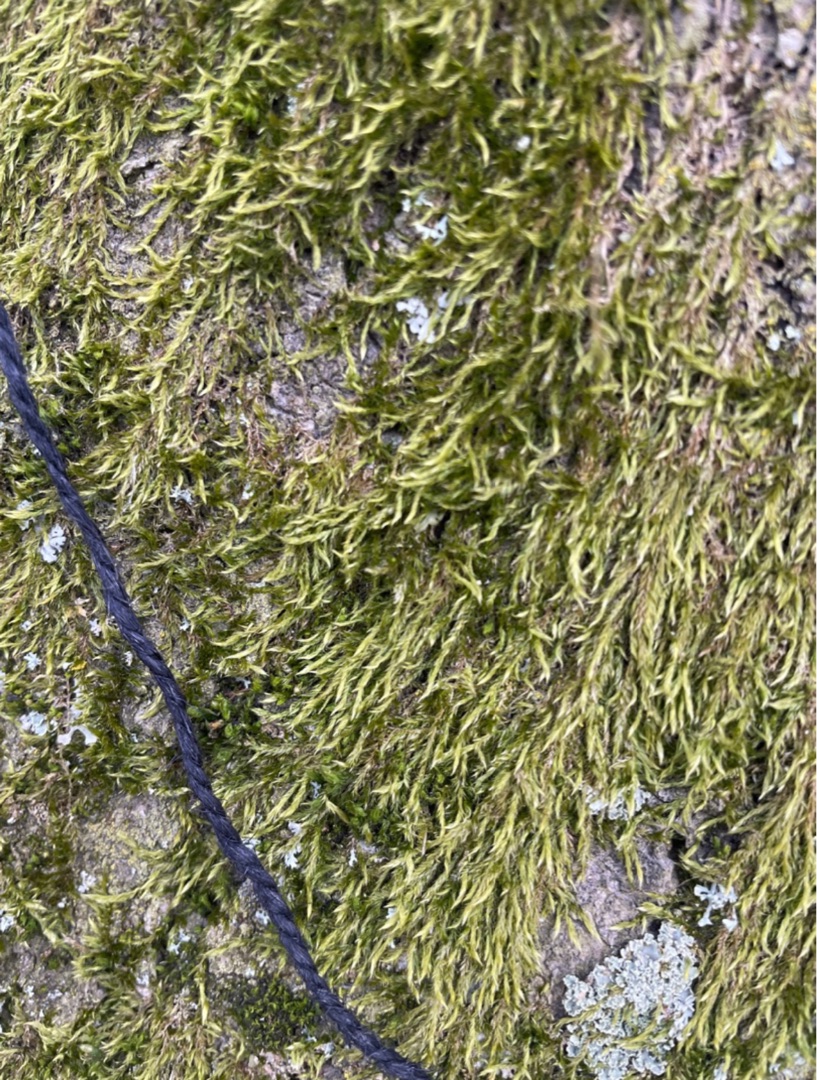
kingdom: Plantae
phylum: Bryophyta
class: Bryopsida
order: Hypnales
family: Hypnaceae
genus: Hypnum
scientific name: Hypnum
